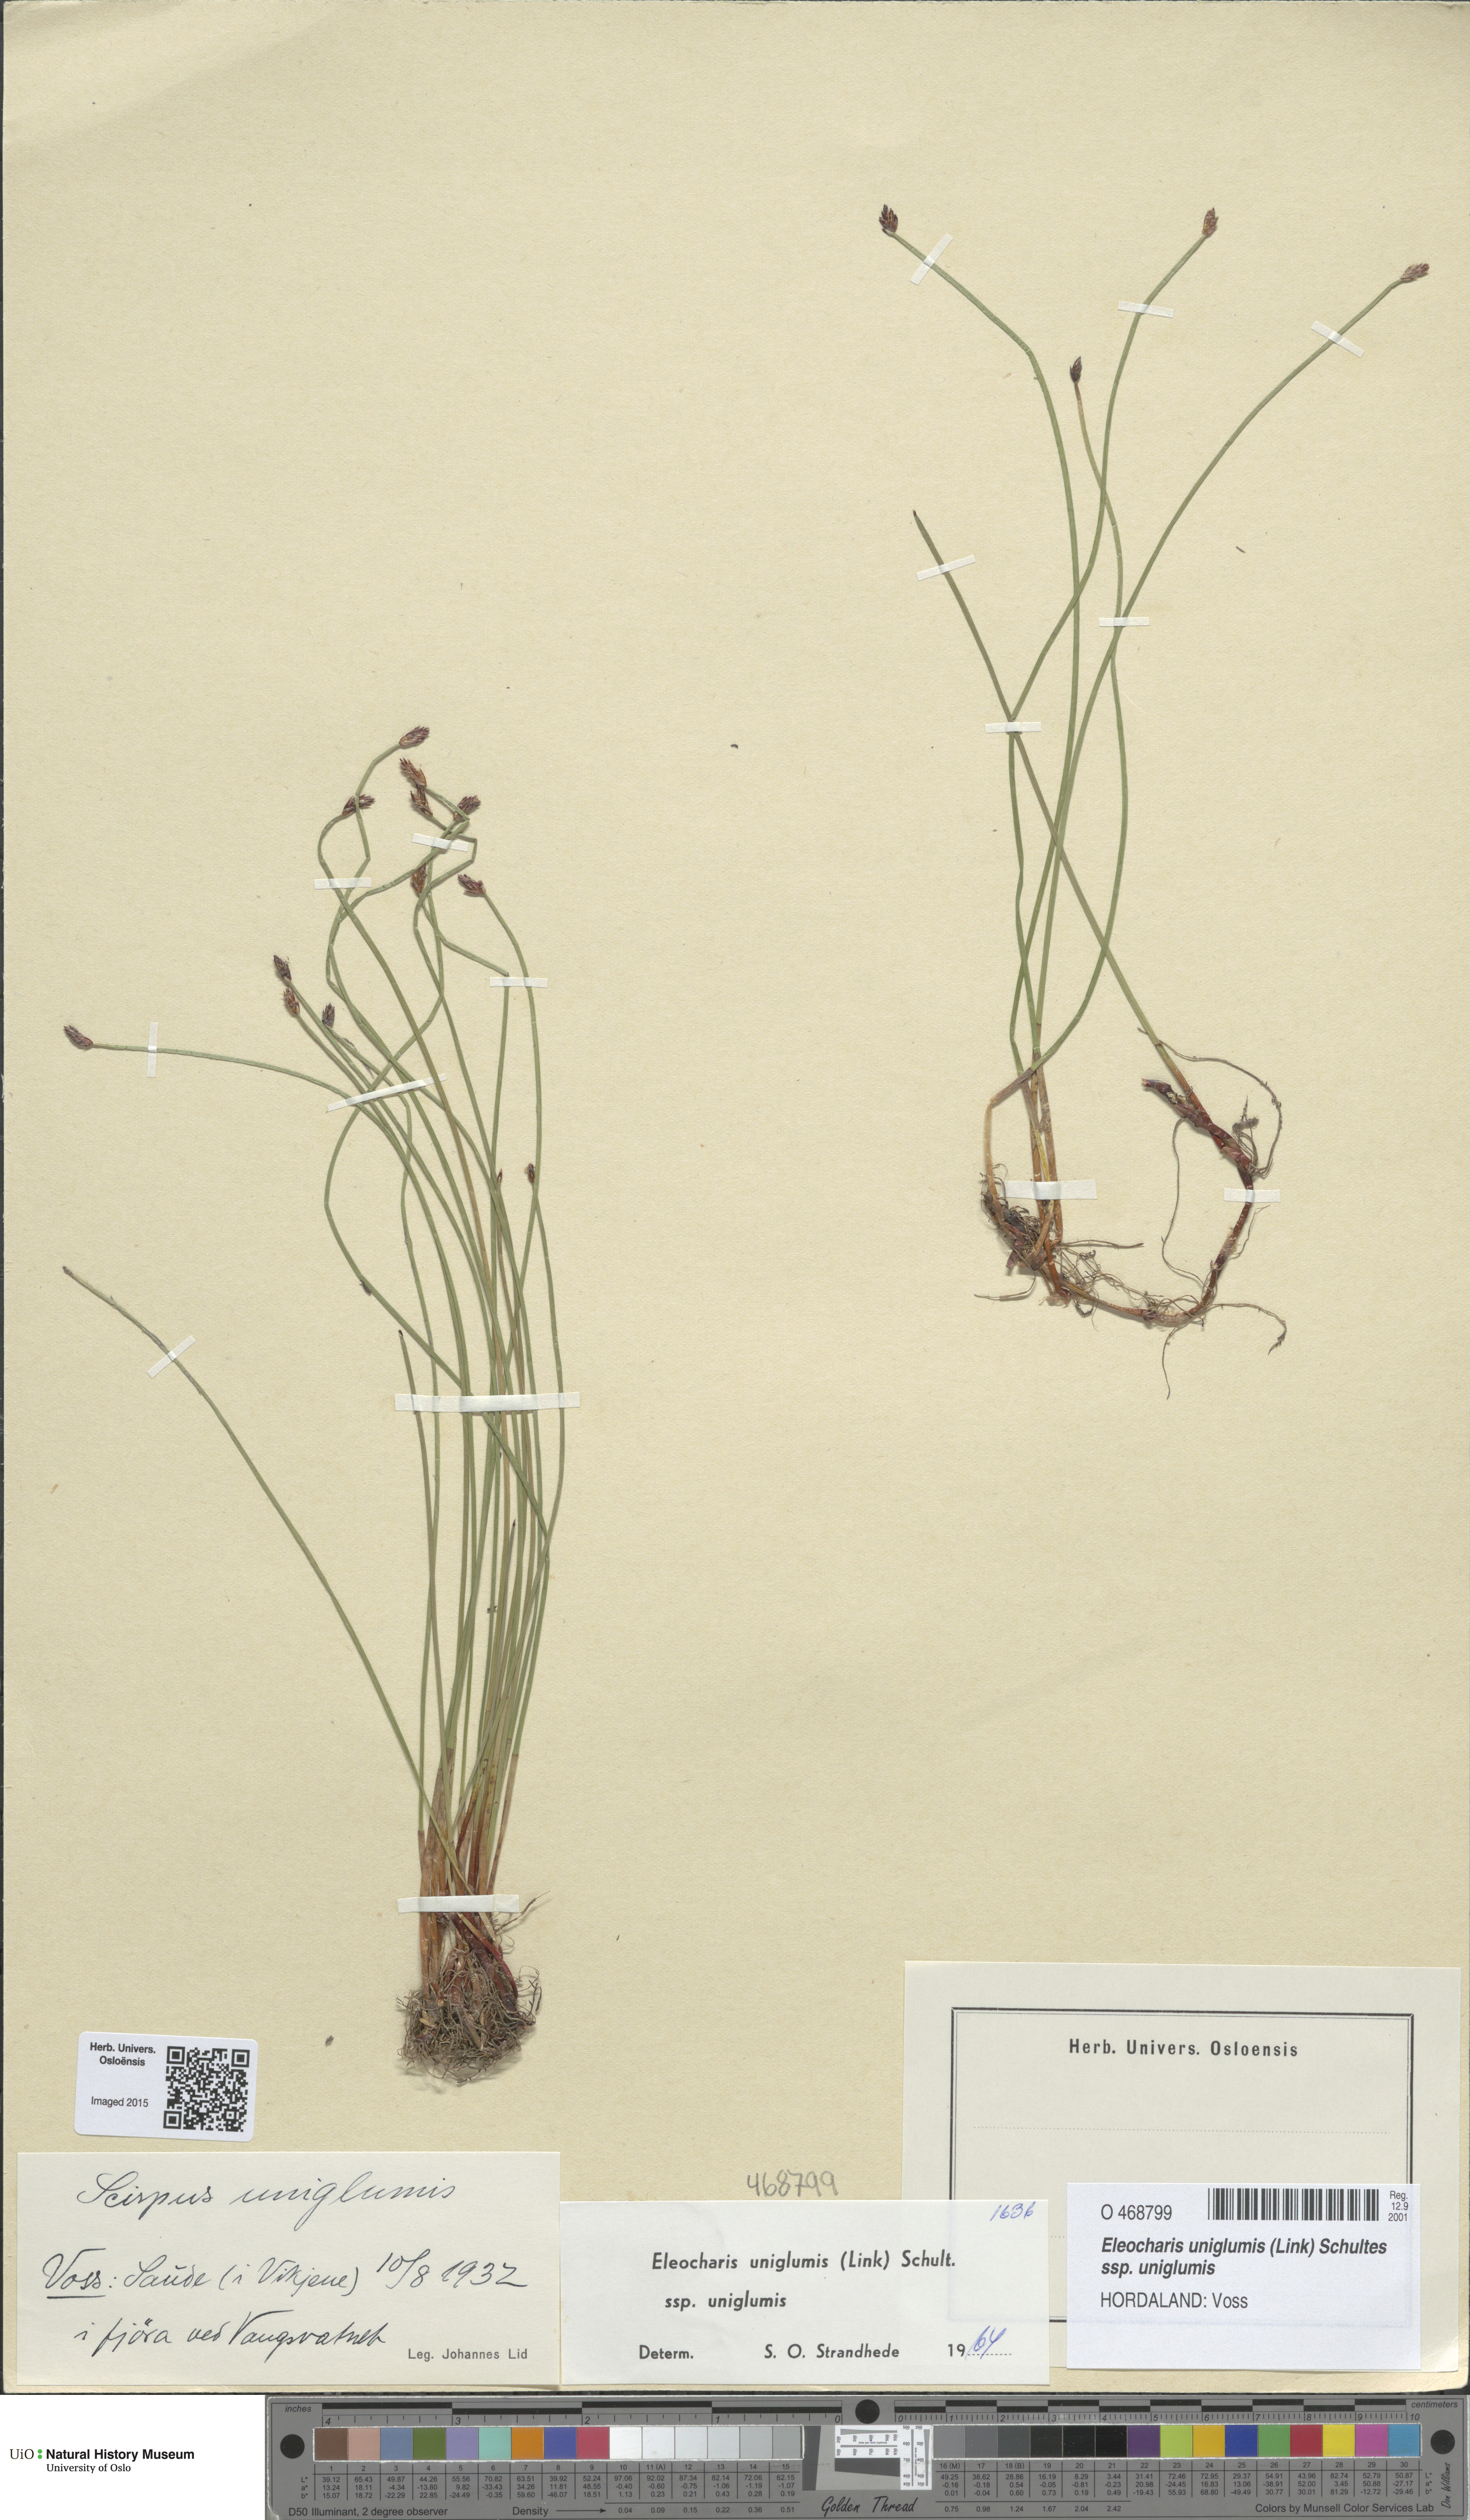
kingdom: Plantae
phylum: Tracheophyta
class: Liliopsida
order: Poales
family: Cyperaceae
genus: Eleocharis
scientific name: Eleocharis uniglumis
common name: Slender spike-rush
